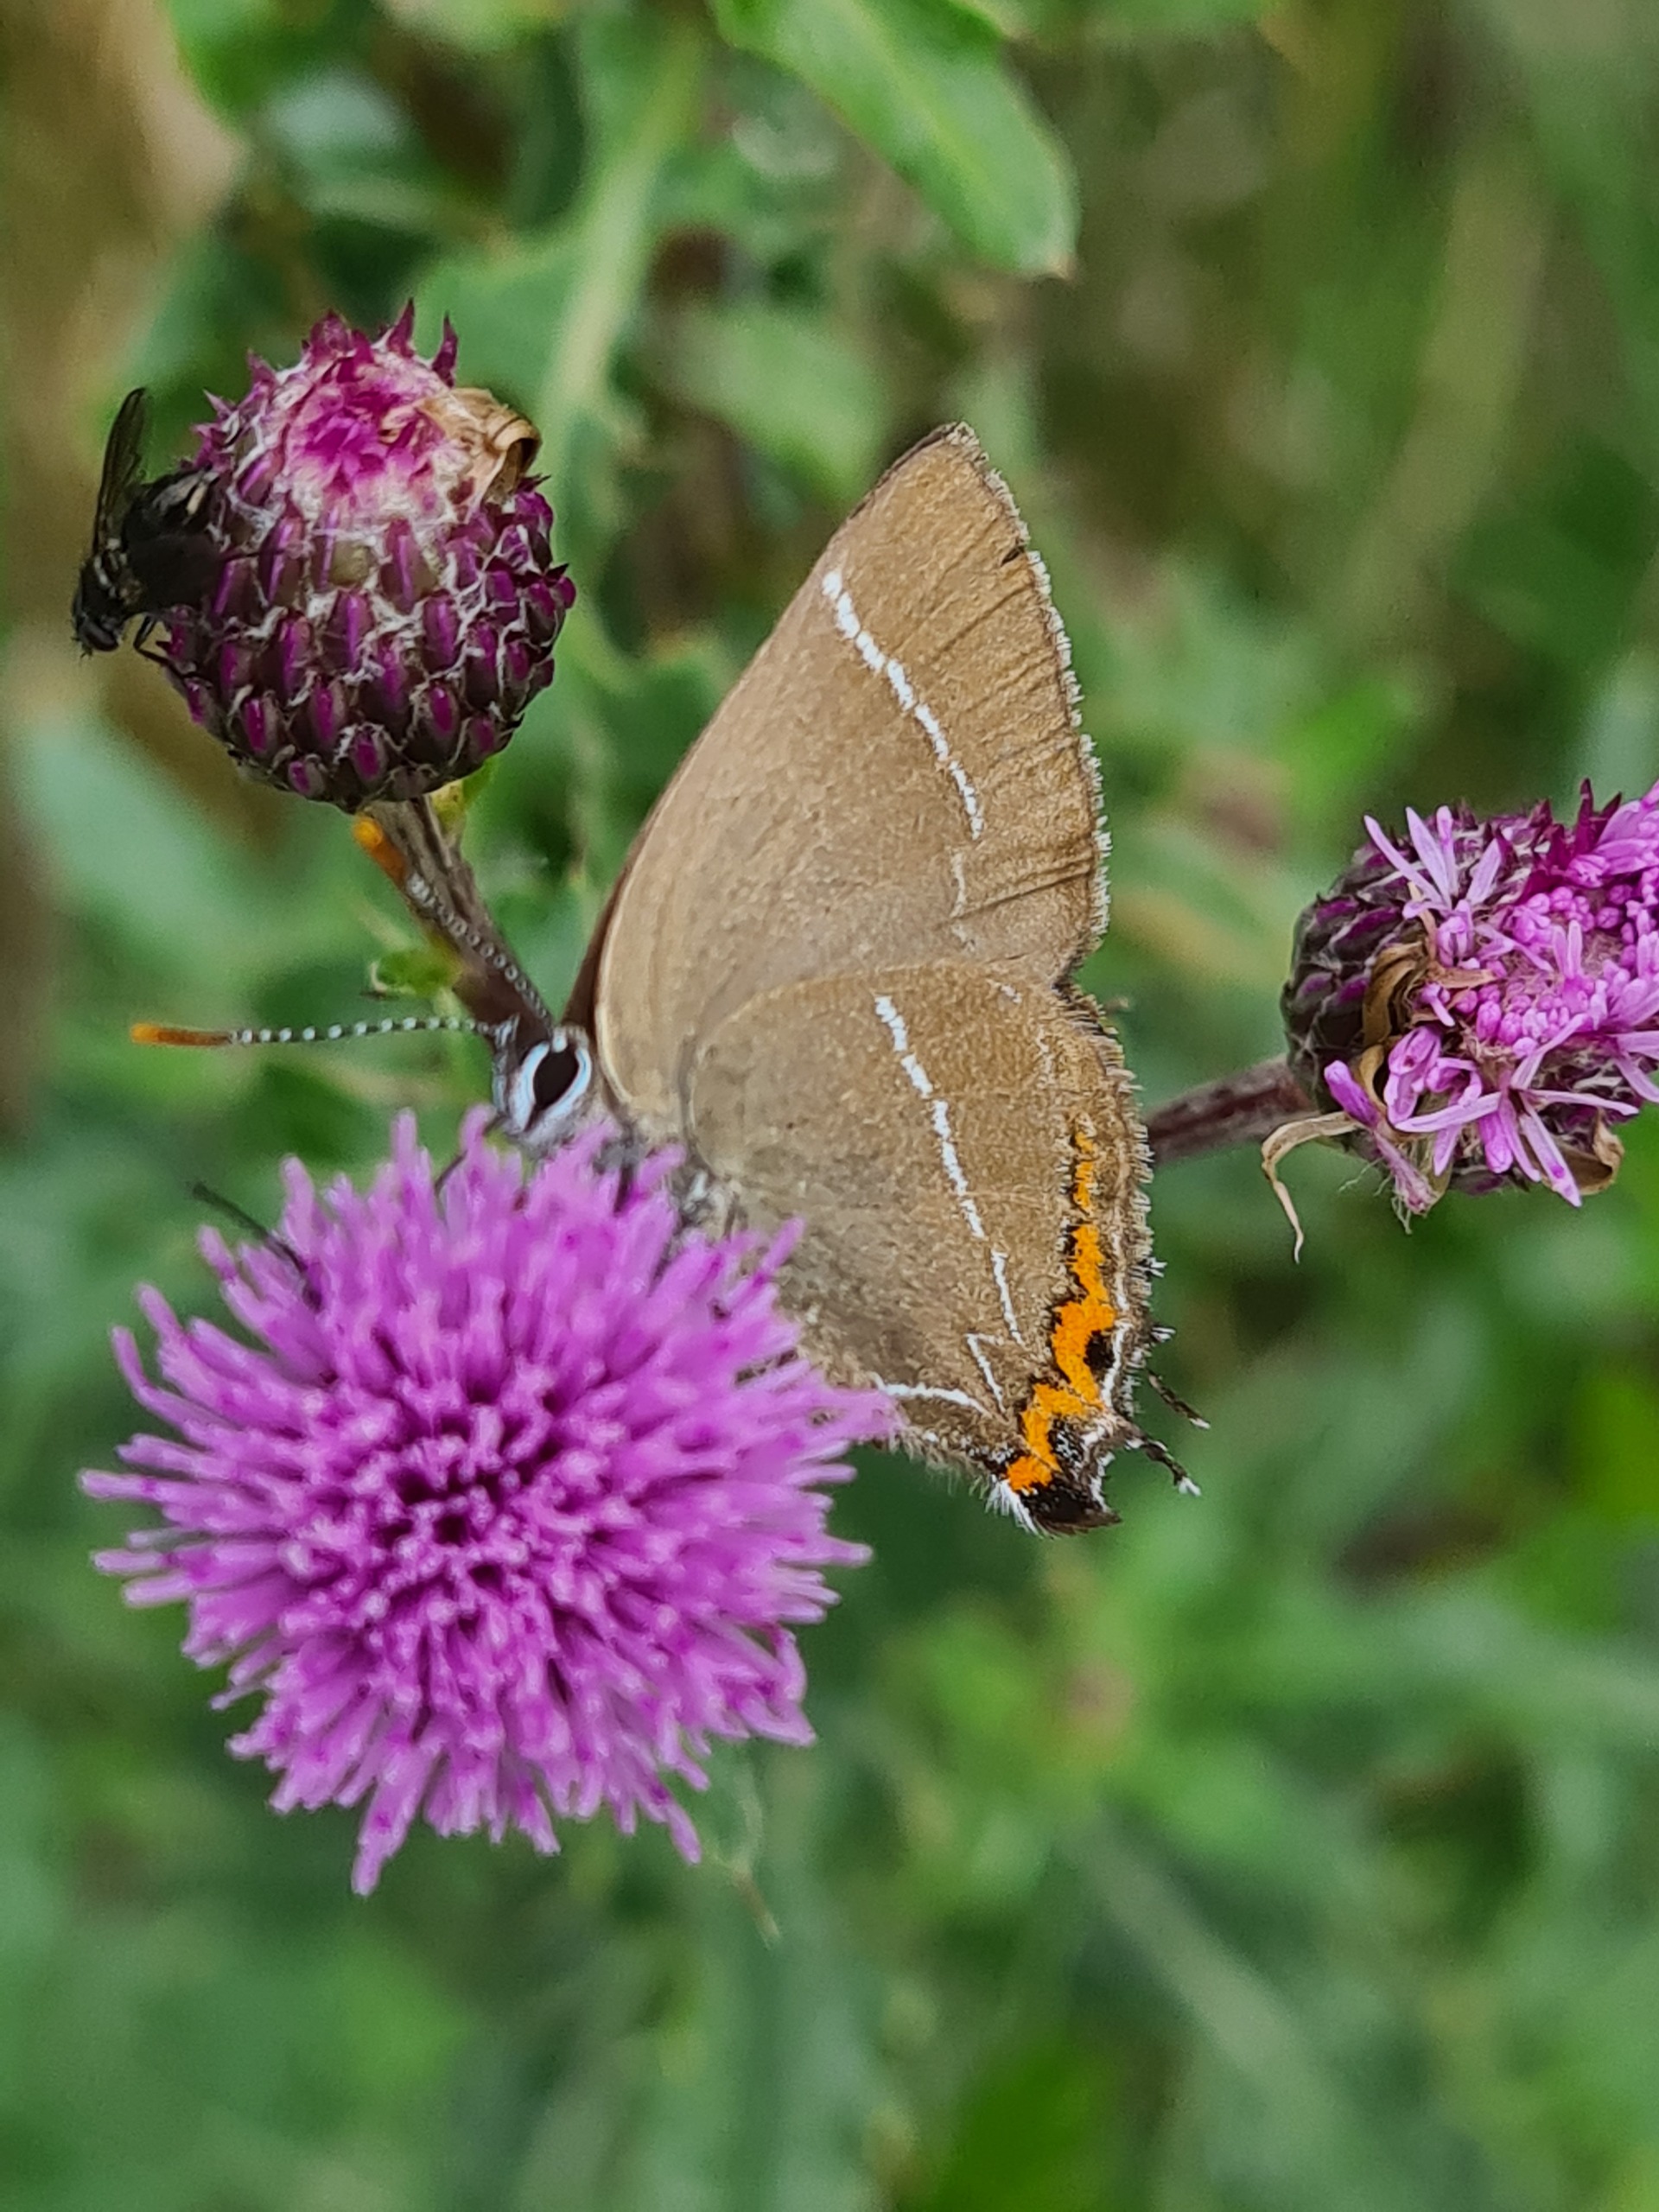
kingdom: Animalia
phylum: Arthropoda
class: Insecta
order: Lepidoptera
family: Lycaenidae
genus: Satyrium
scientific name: Satyrium w-album
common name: Det hvide W
